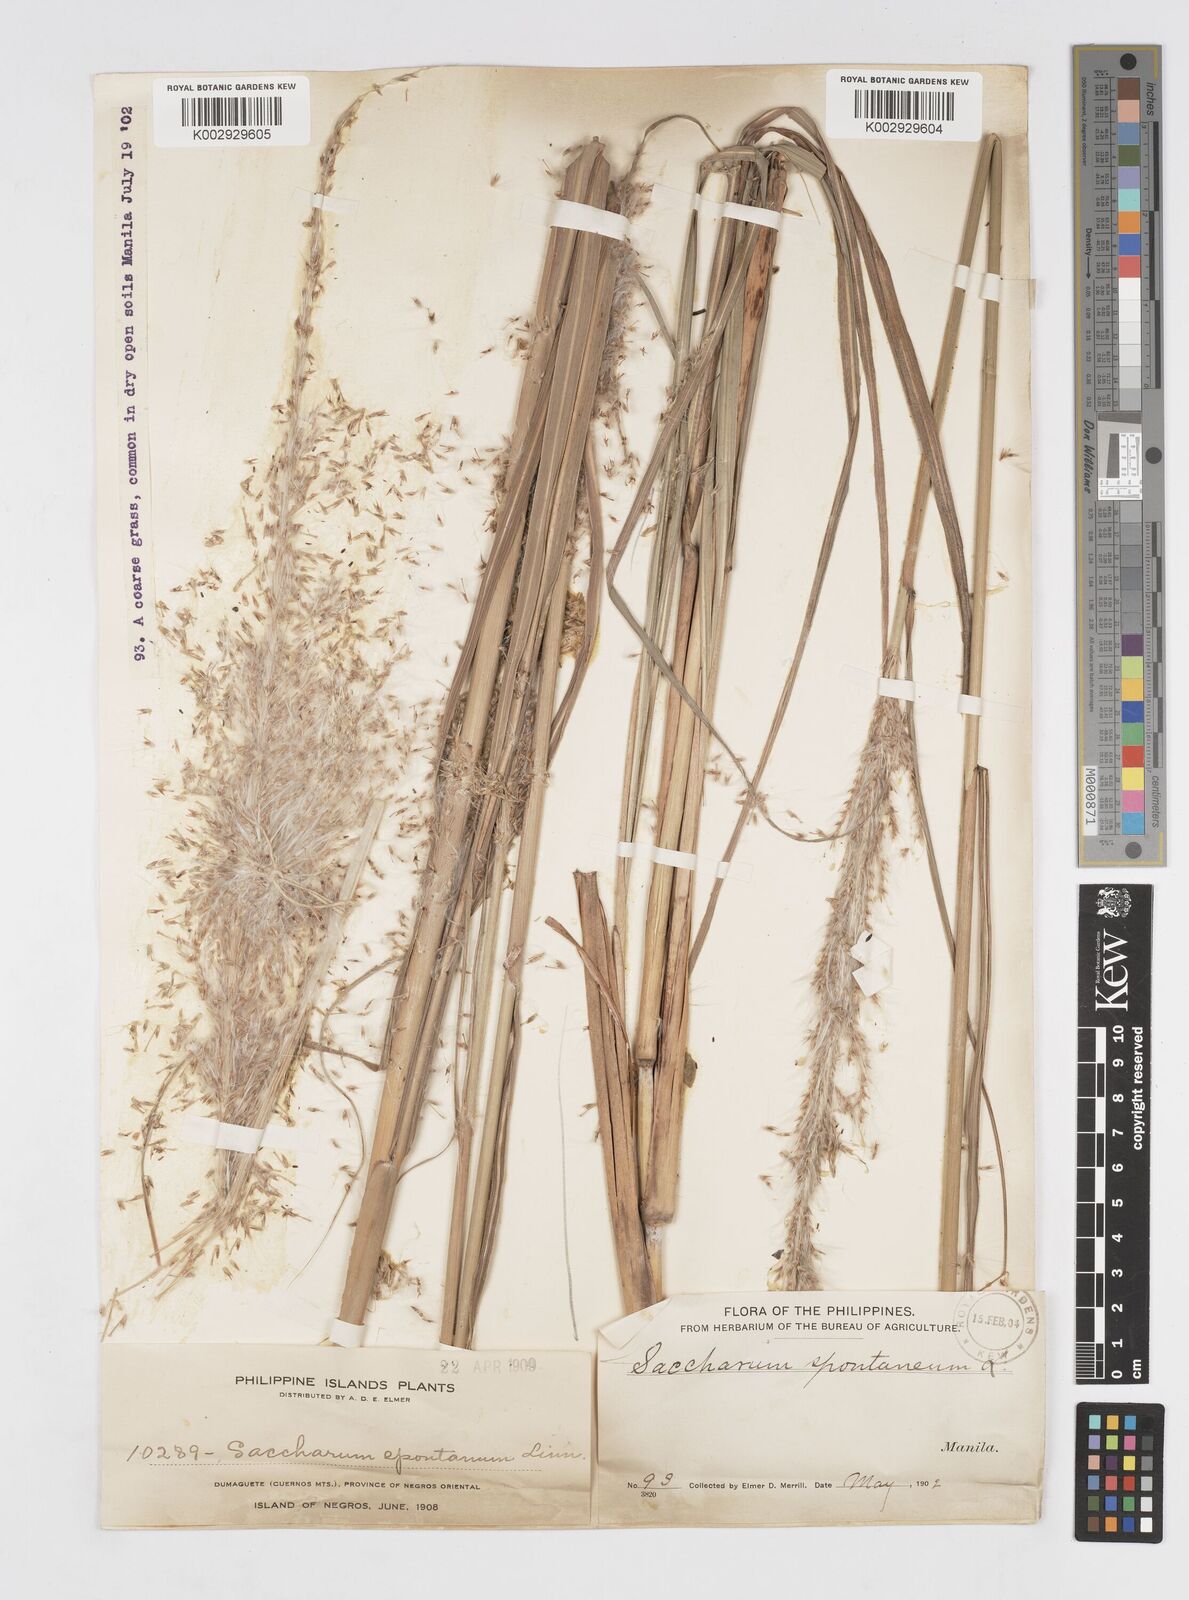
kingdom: Plantae
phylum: Tracheophyta
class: Liliopsida
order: Poales
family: Poaceae
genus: Saccharum
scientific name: Saccharum spontaneum
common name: Wild sugarcane
